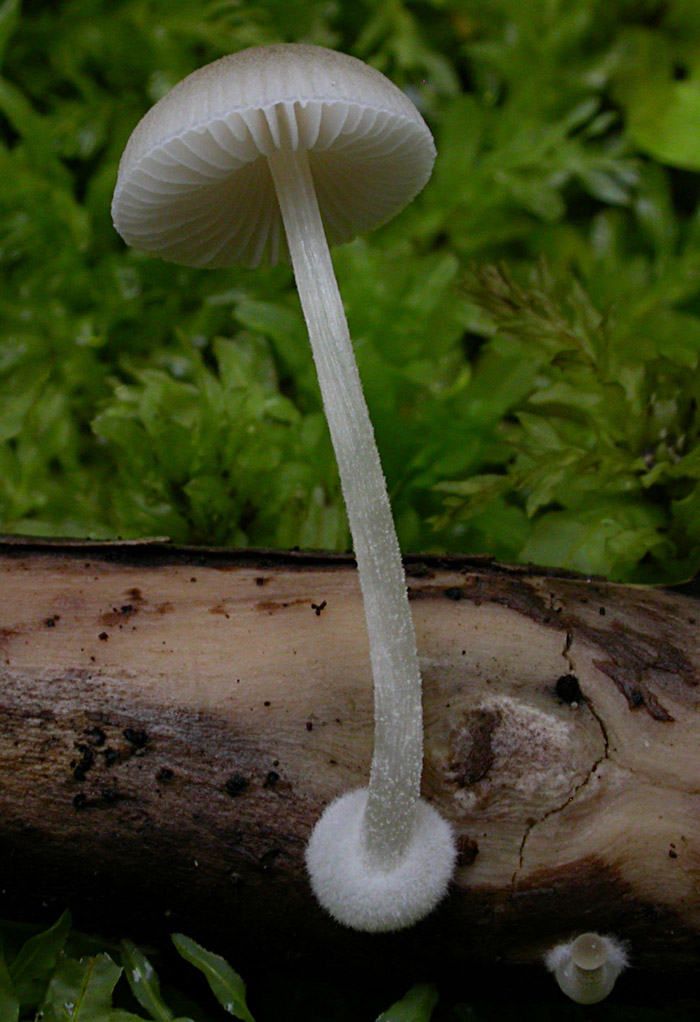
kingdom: Fungi
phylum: Basidiomycota
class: Agaricomycetes
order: Agaricales
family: Pluteaceae
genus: Pluteus
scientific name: Pluteus semibulbosus
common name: knoldet skærmhat
